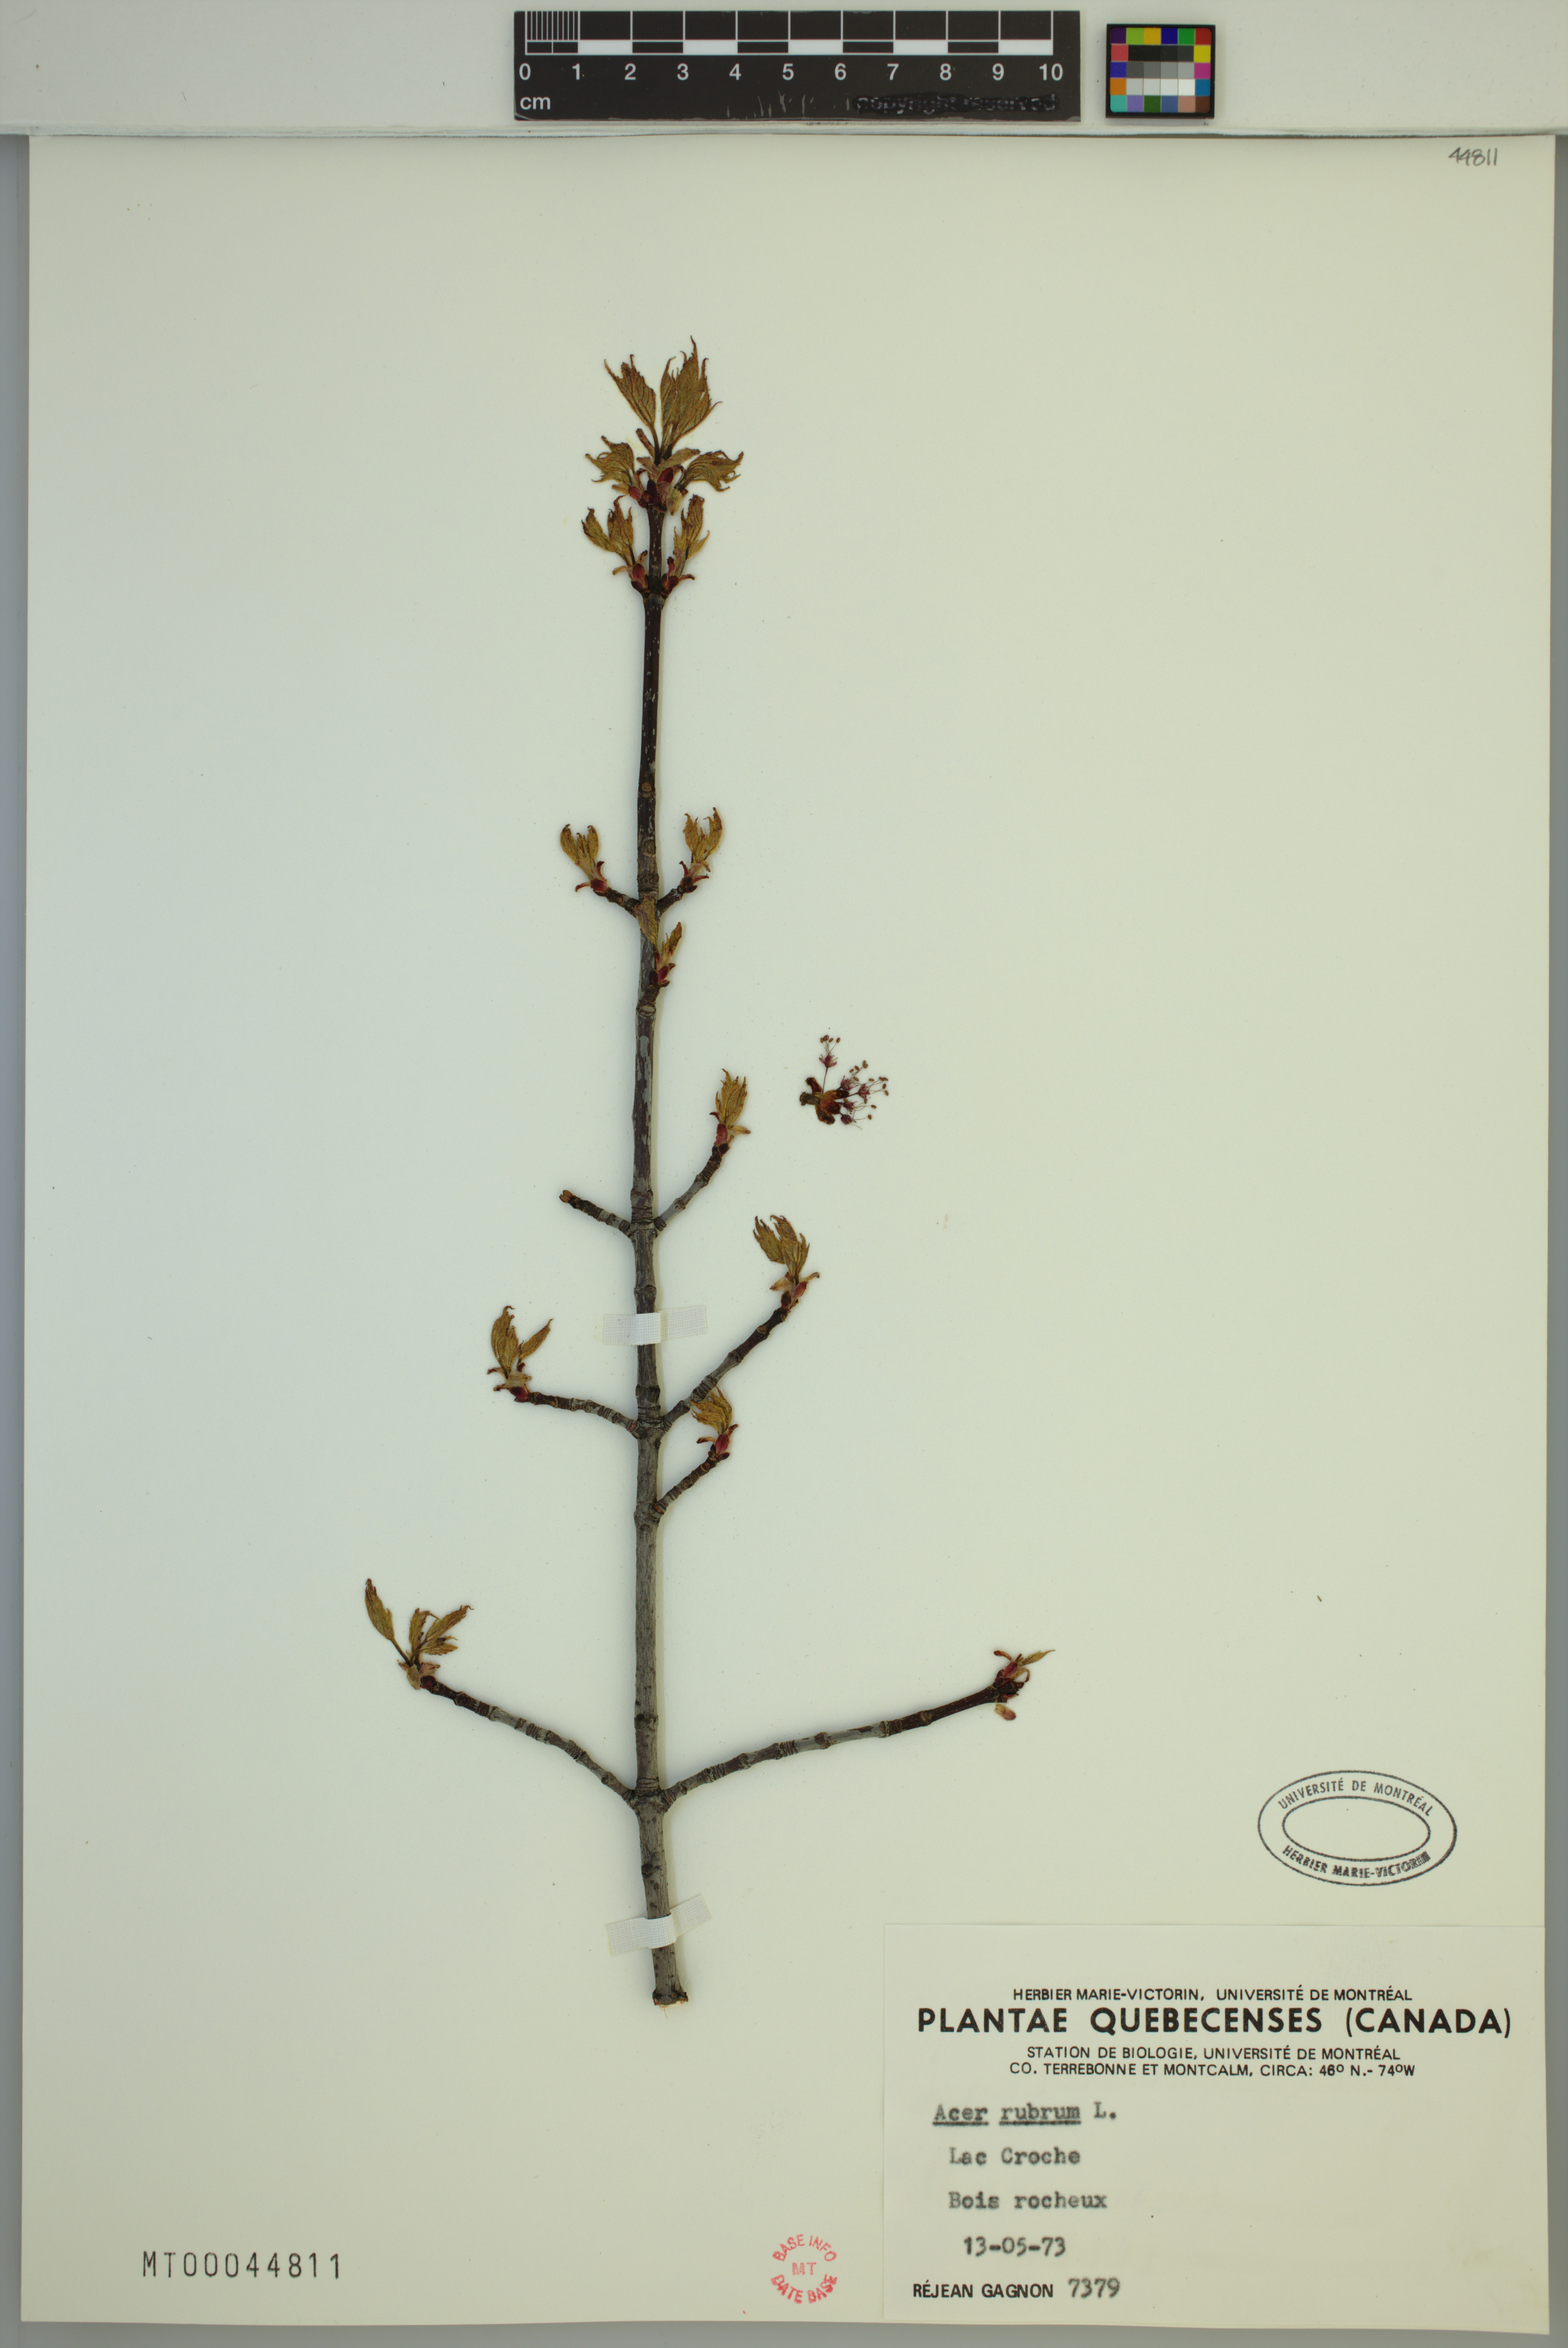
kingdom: Plantae
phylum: Tracheophyta
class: Magnoliopsida
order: Sapindales
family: Sapindaceae
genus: Acer
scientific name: Acer rubrum
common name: Red maple
